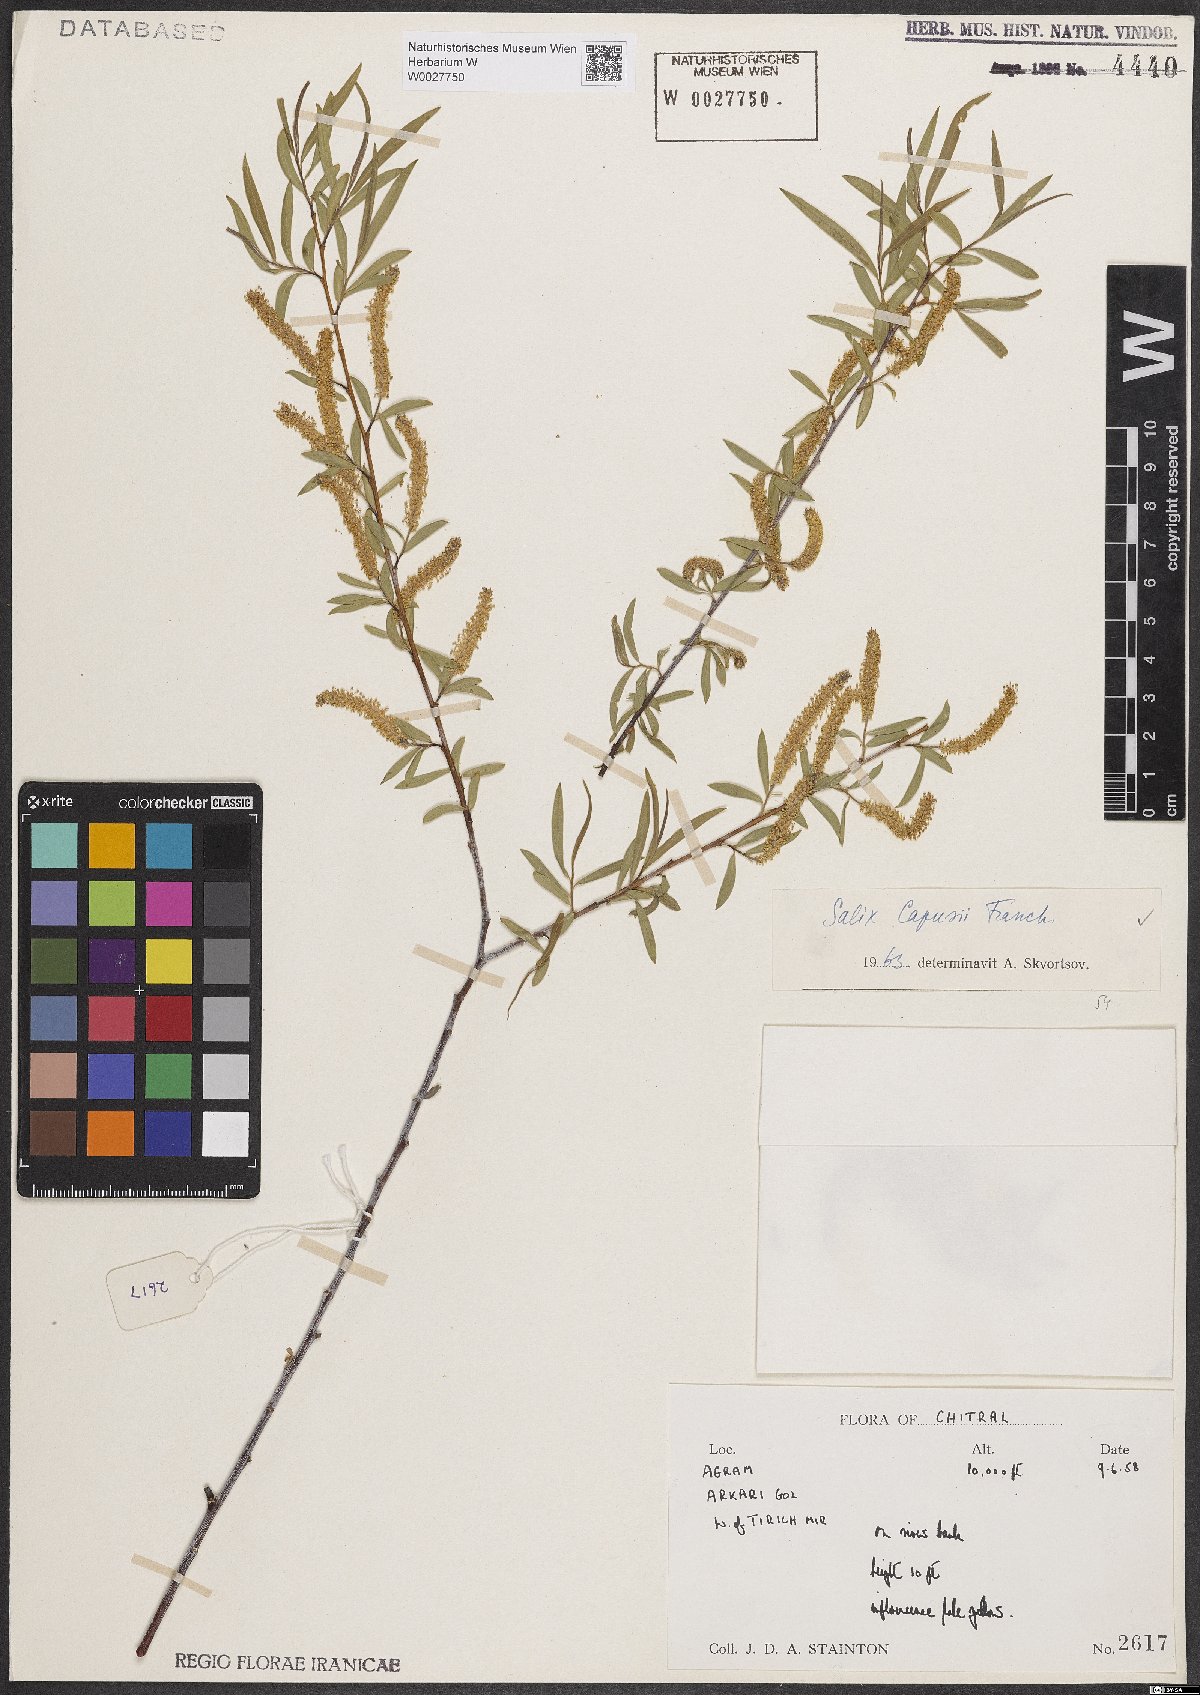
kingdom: Plantae
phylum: Tracheophyta
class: Magnoliopsida
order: Malpighiales
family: Salicaceae
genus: Salix
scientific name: Salix capusii
